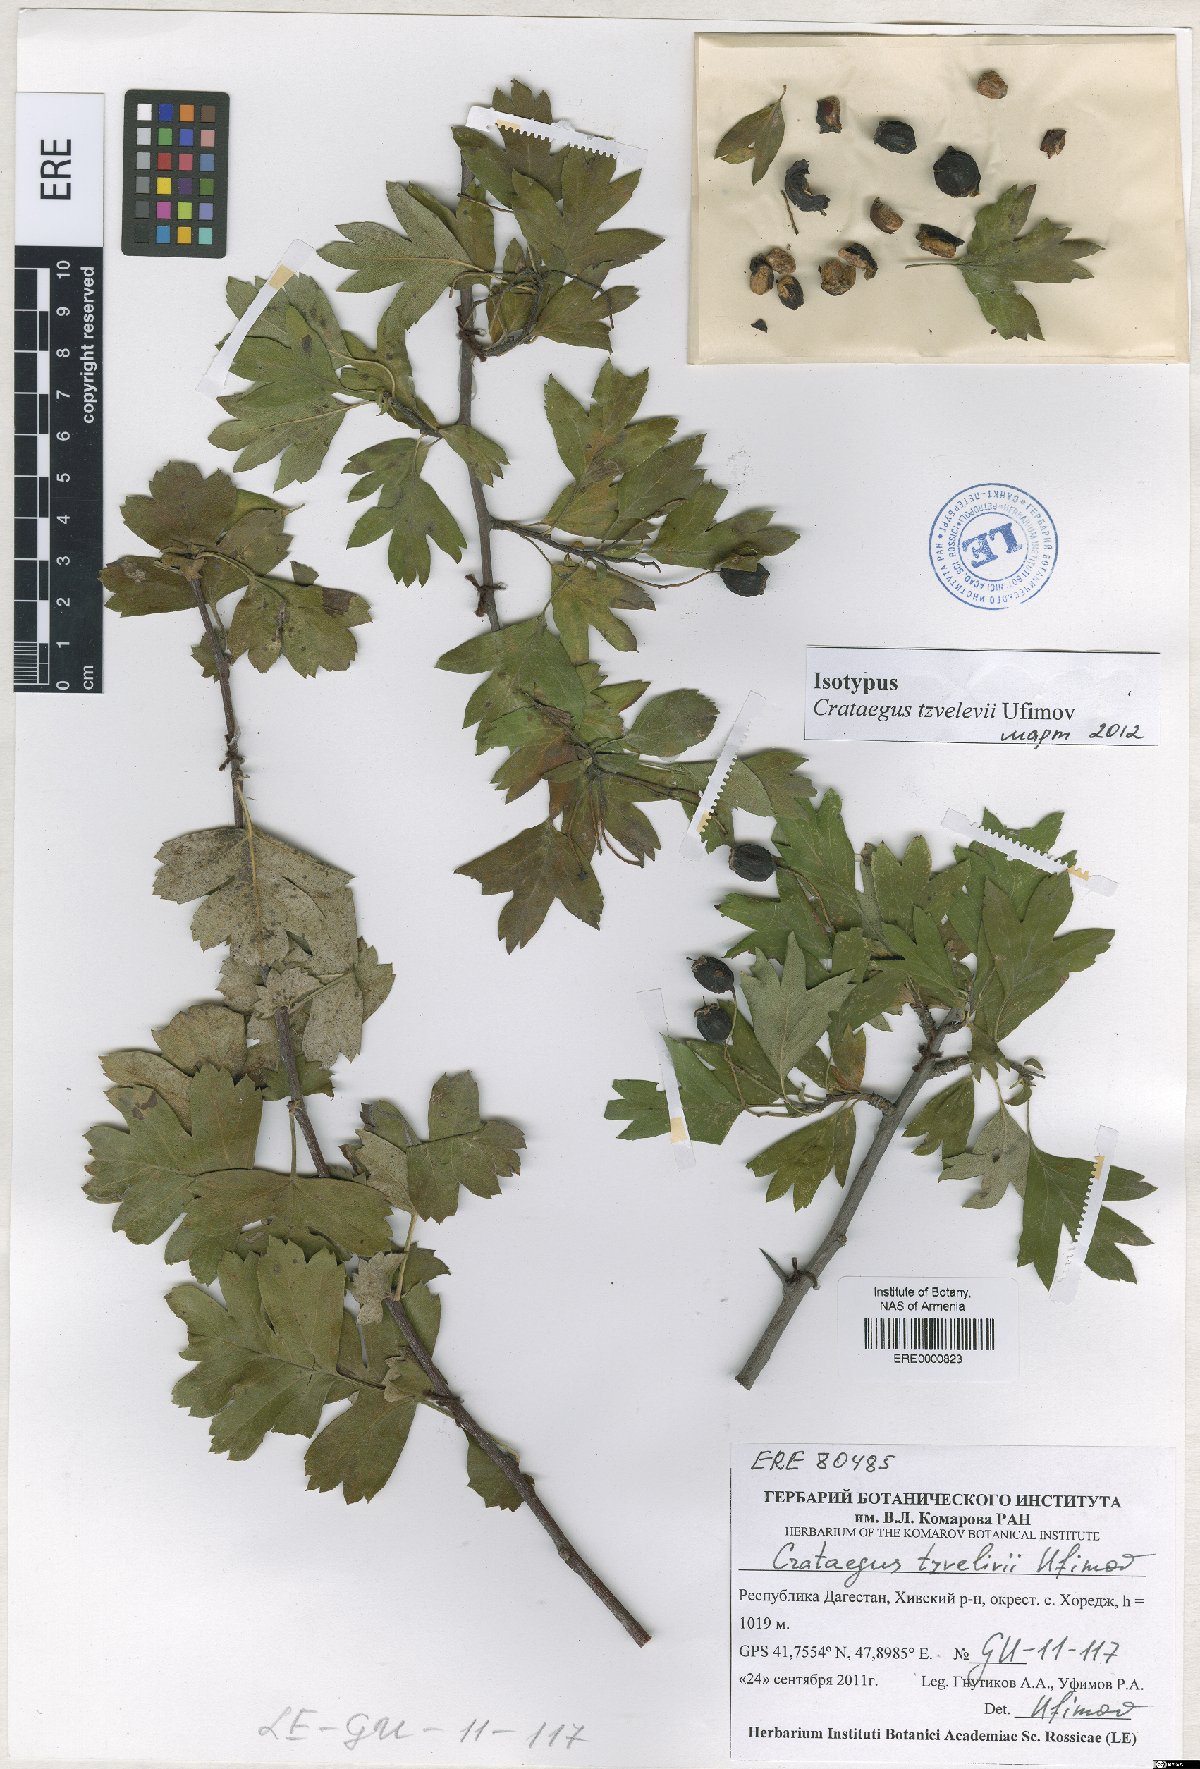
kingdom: Plantae
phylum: Tracheophyta
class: Magnoliopsida
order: Rosales
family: Rosaceae
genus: Crataegus
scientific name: Crataegus tzvelevii
